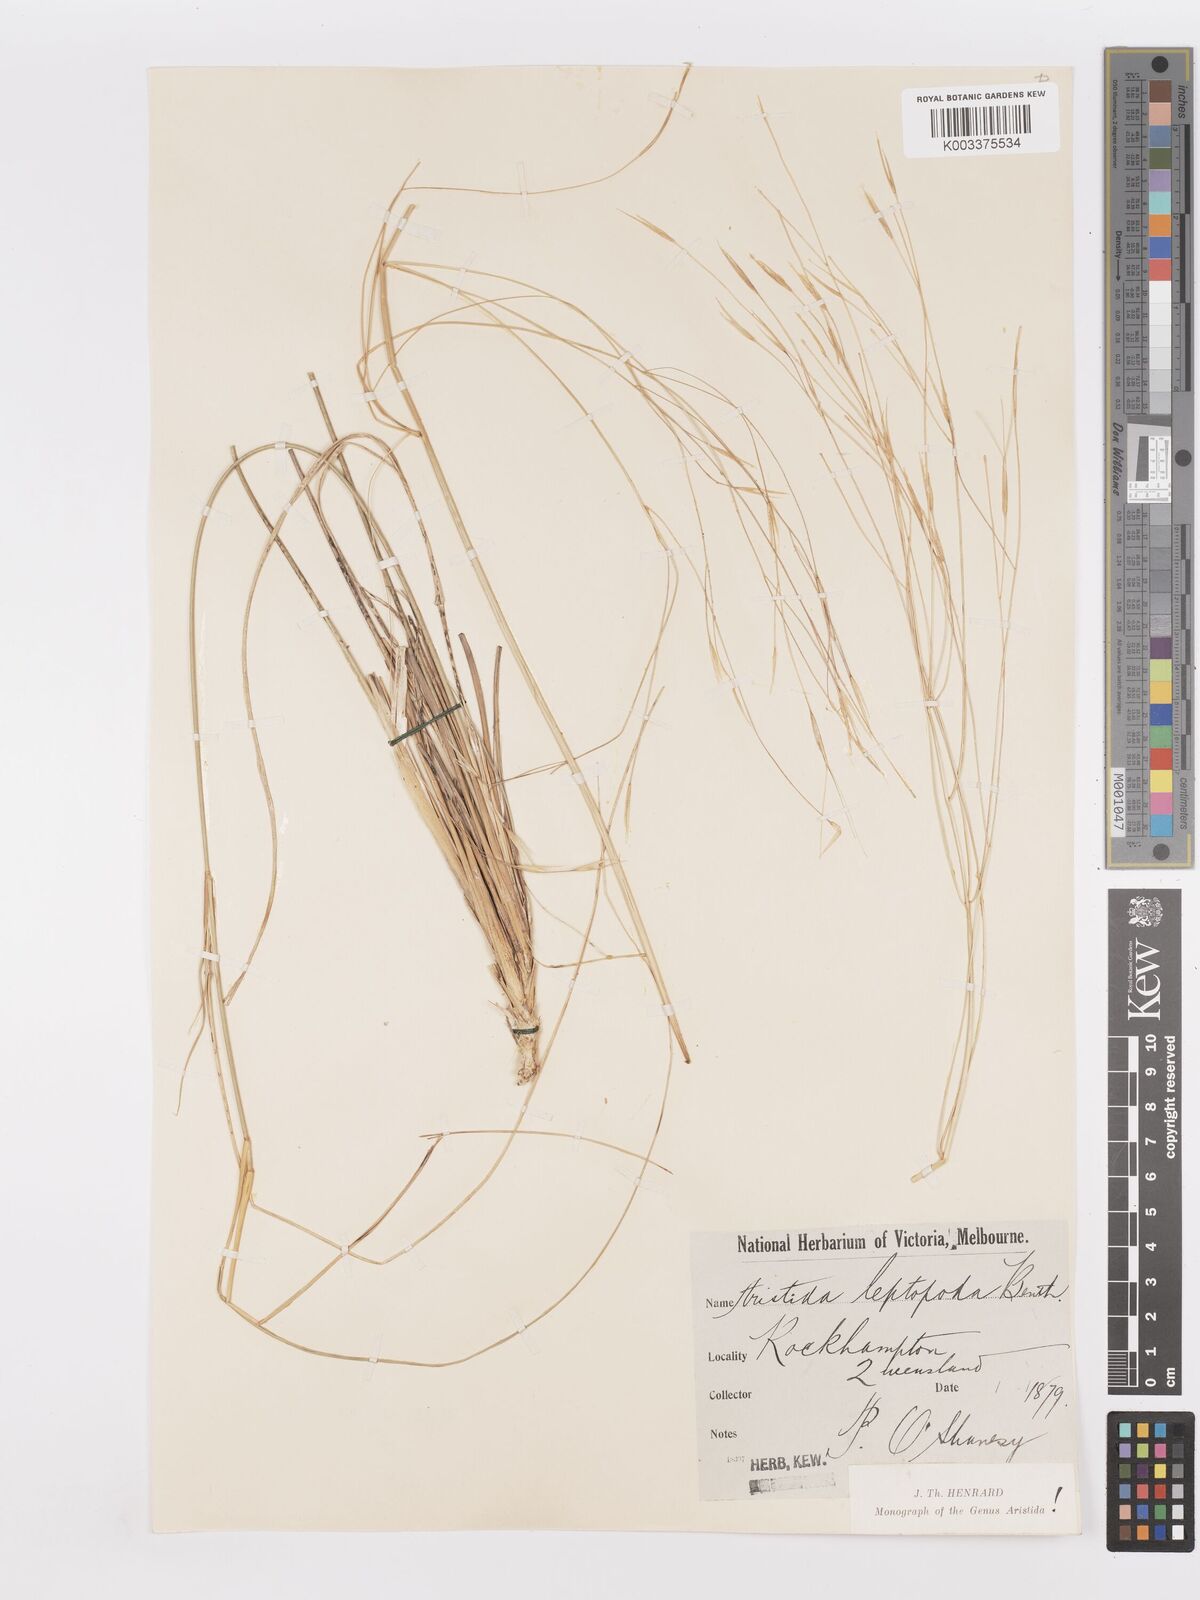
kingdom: Plantae
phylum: Tracheophyta
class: Liliopsida
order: Poales
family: Poaceae
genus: Aristida
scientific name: Aristida leptopoda
